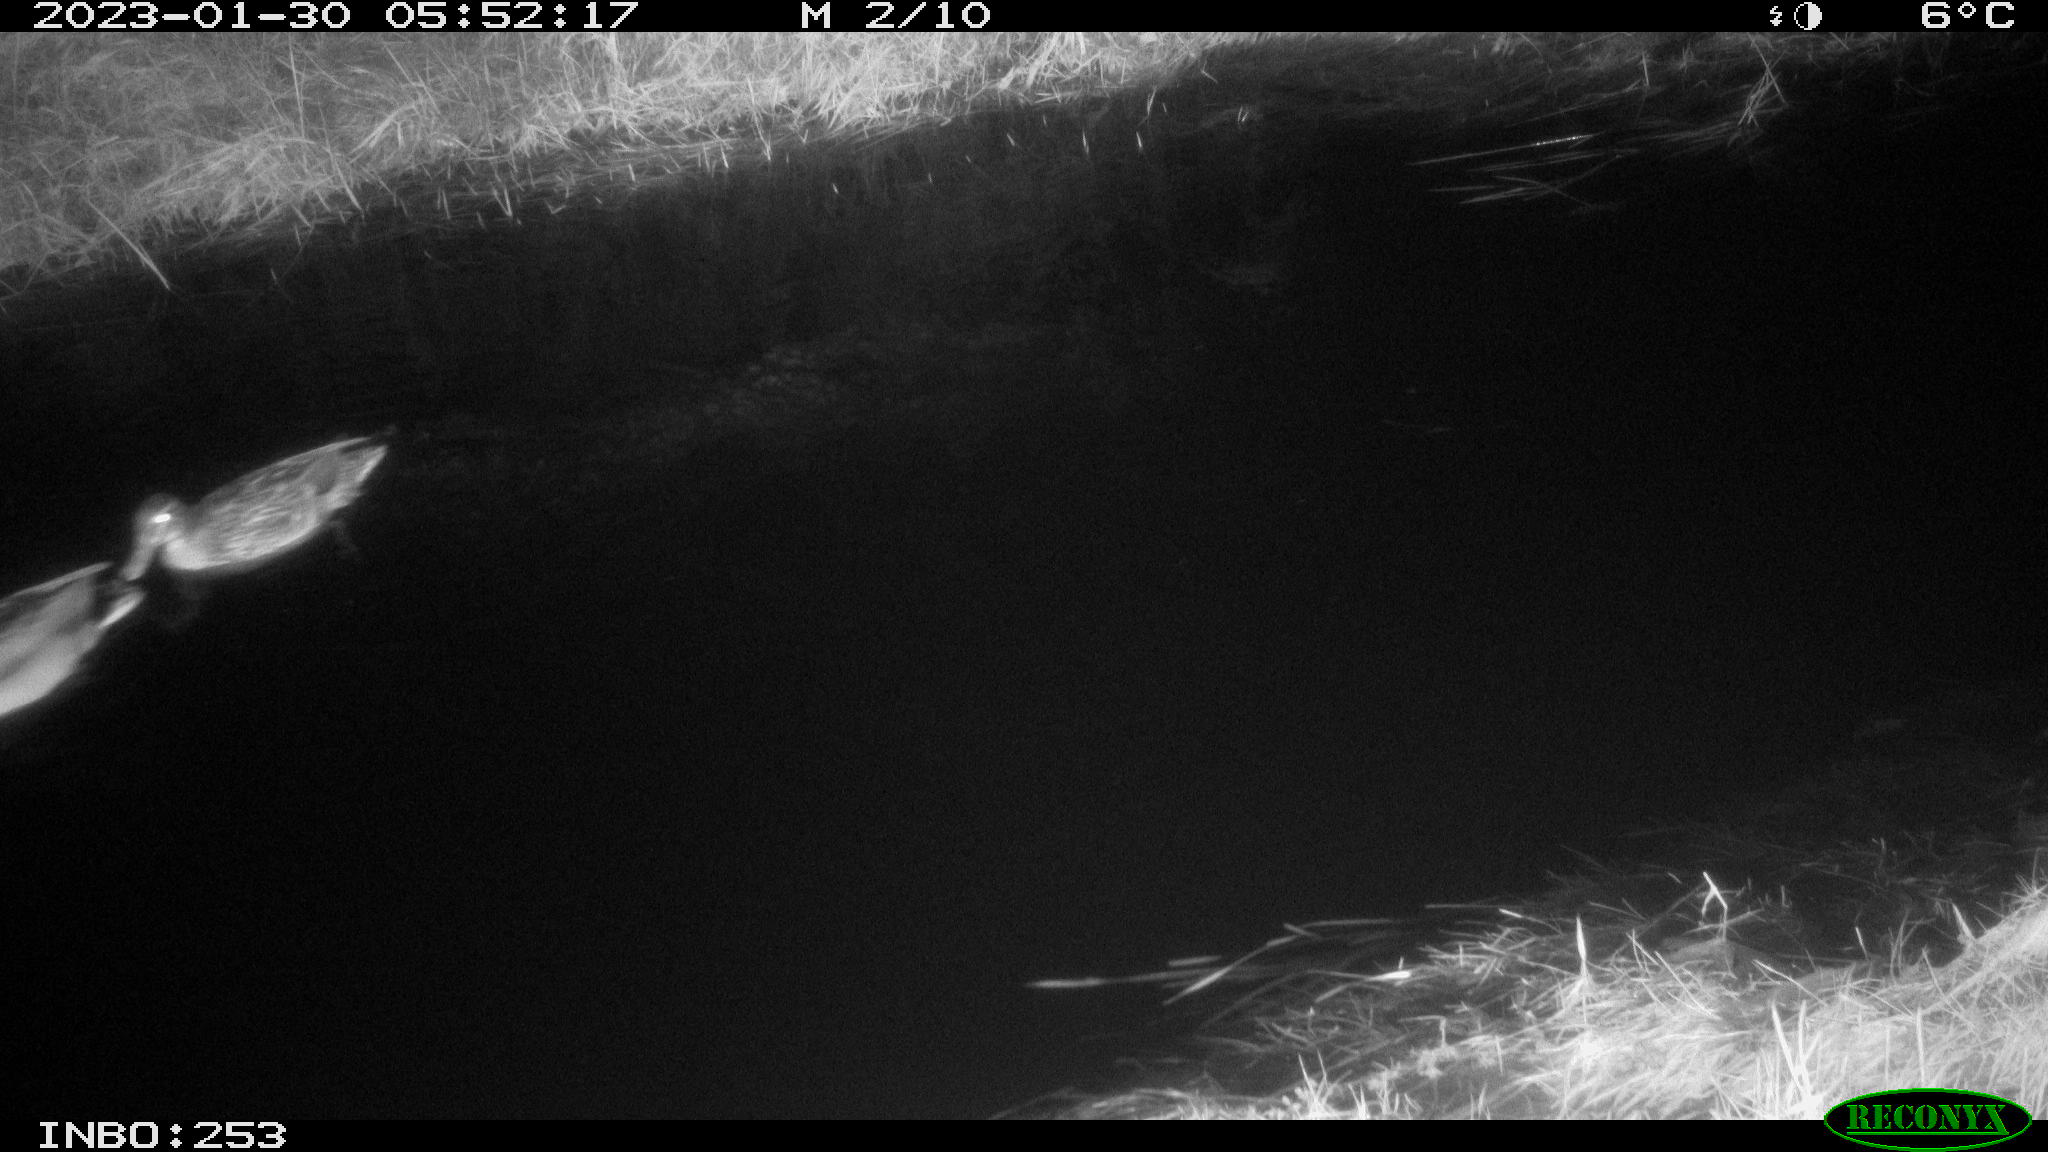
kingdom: Animalia
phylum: Chordata
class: Aves
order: Anseriformes
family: Anatidae
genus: Anas
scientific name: Anas
